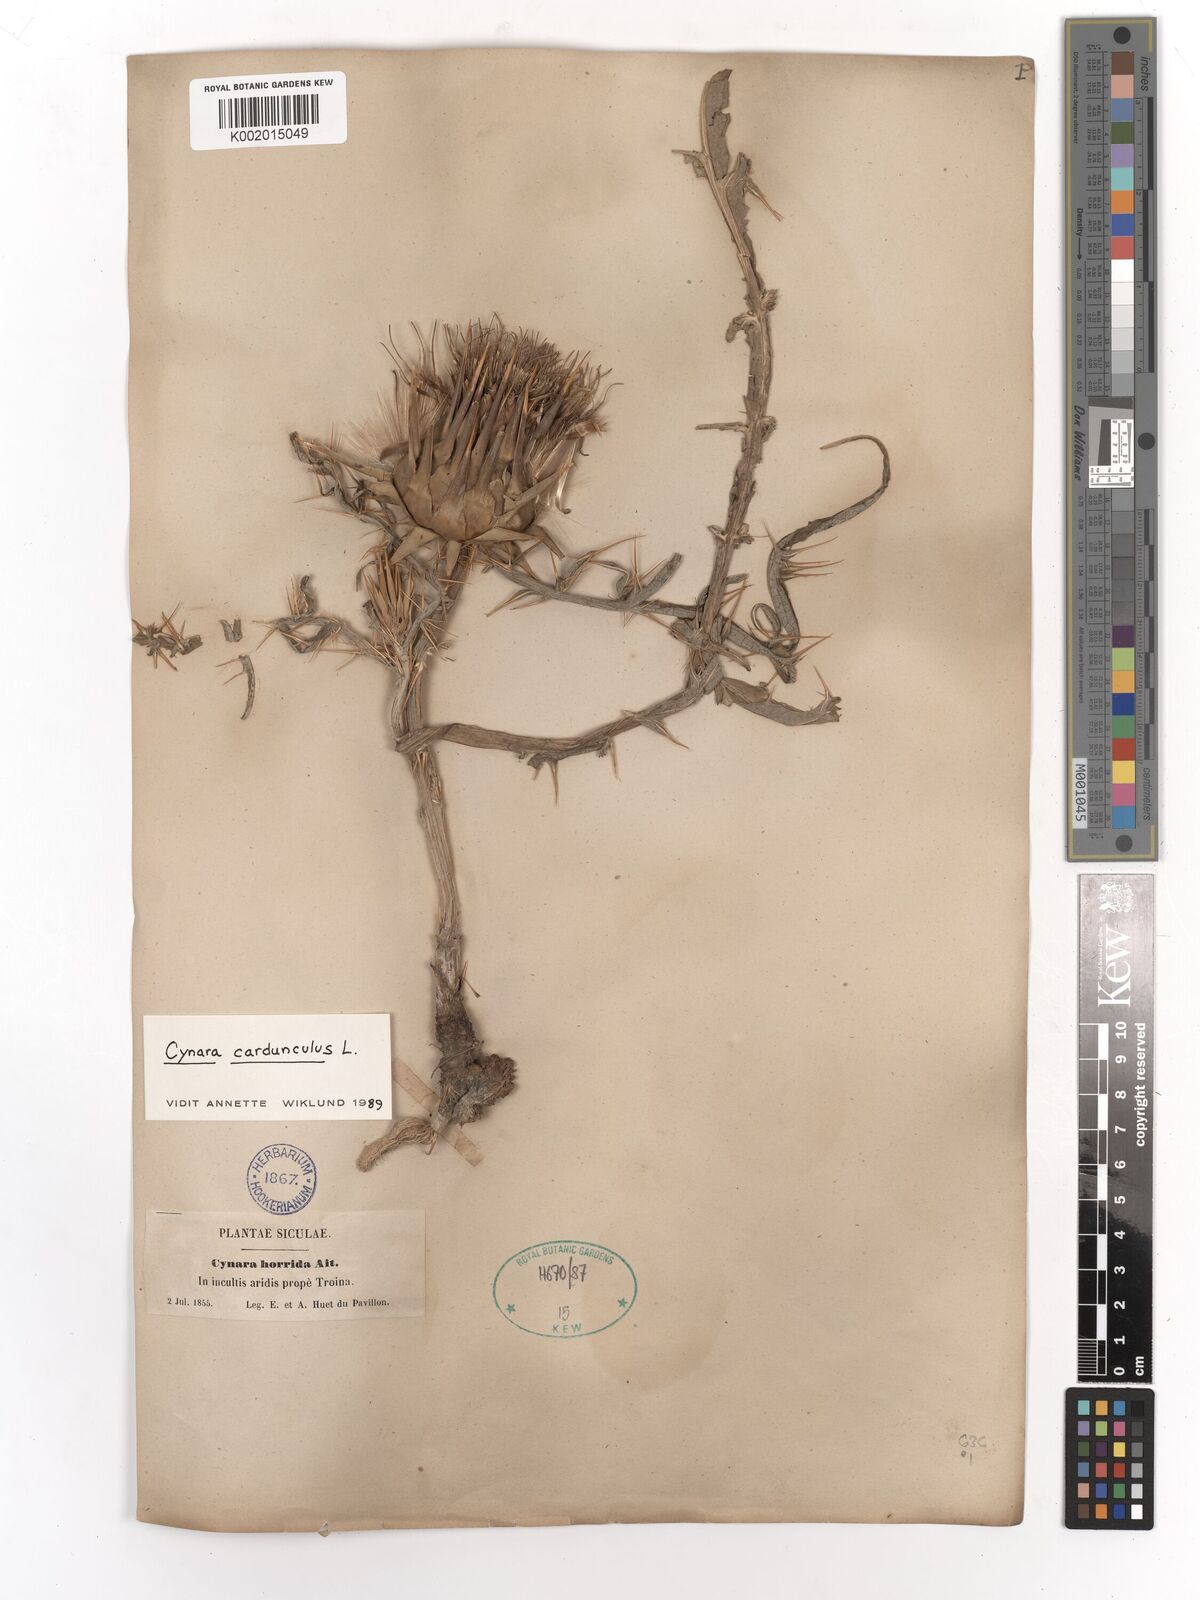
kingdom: Plantae
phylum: Tracheophyta
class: Magnoliopsida
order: Asterales
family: Asteraceae
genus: Cynara
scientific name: Cynara cardunculus
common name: Globe artichoke
